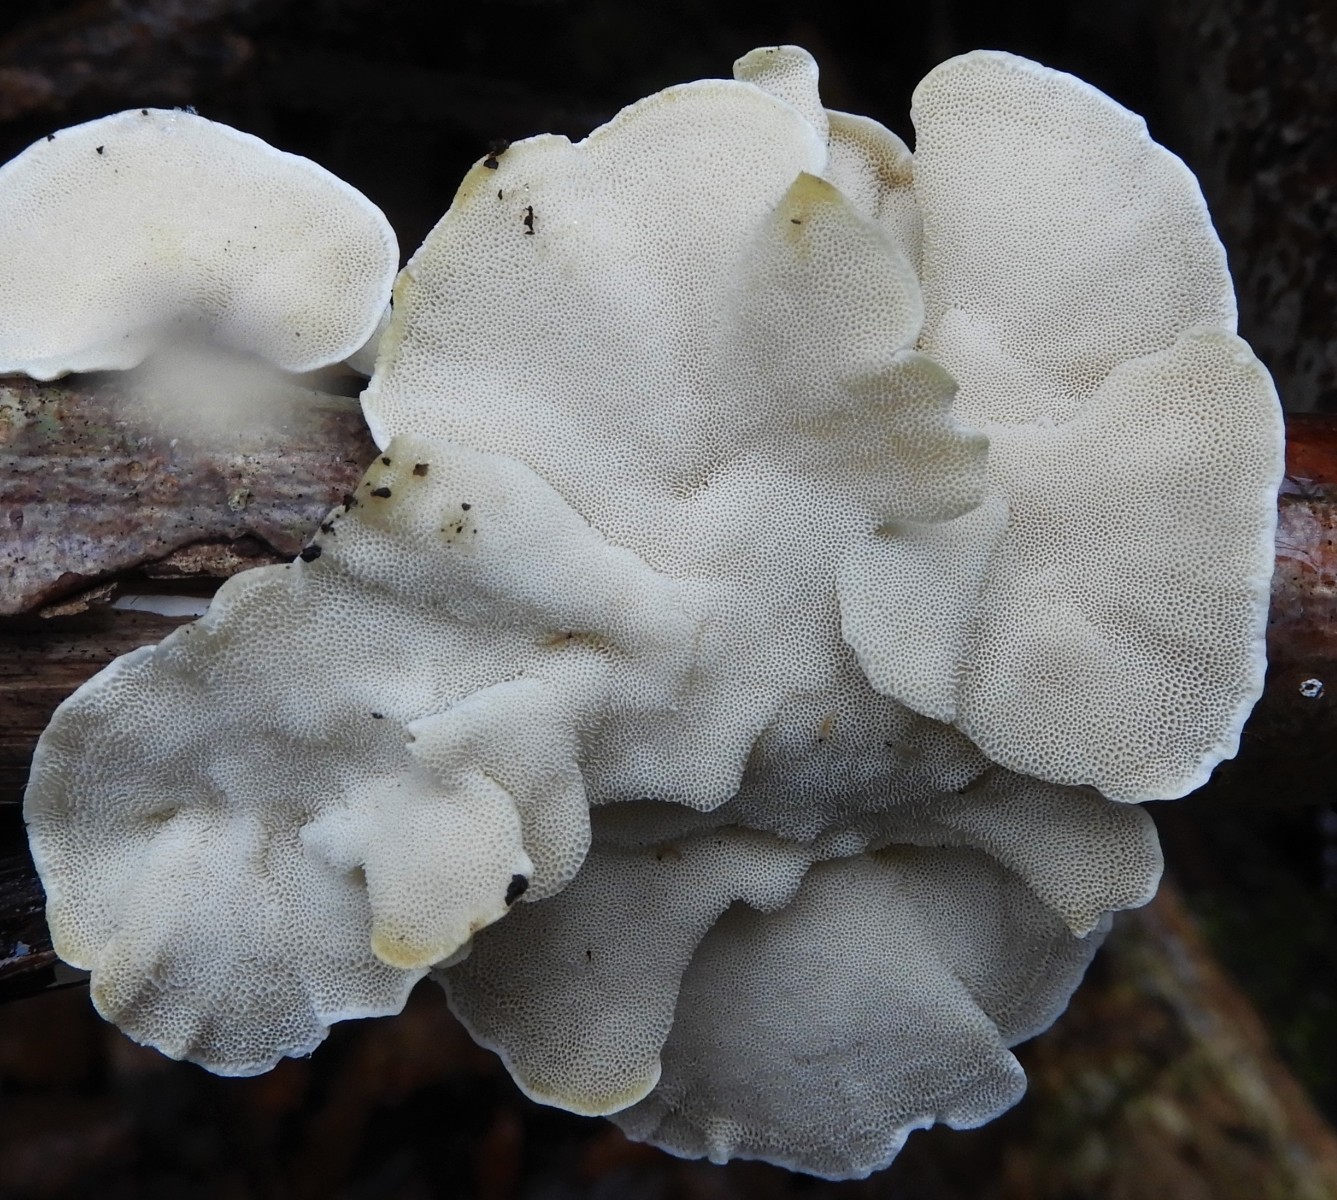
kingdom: Fungi
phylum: Basidiomycota
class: Agaricomycetes
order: Polyporales
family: Polyporaceae
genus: Trametes
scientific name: Trametes ochracea
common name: bæltet læderporesvamp
